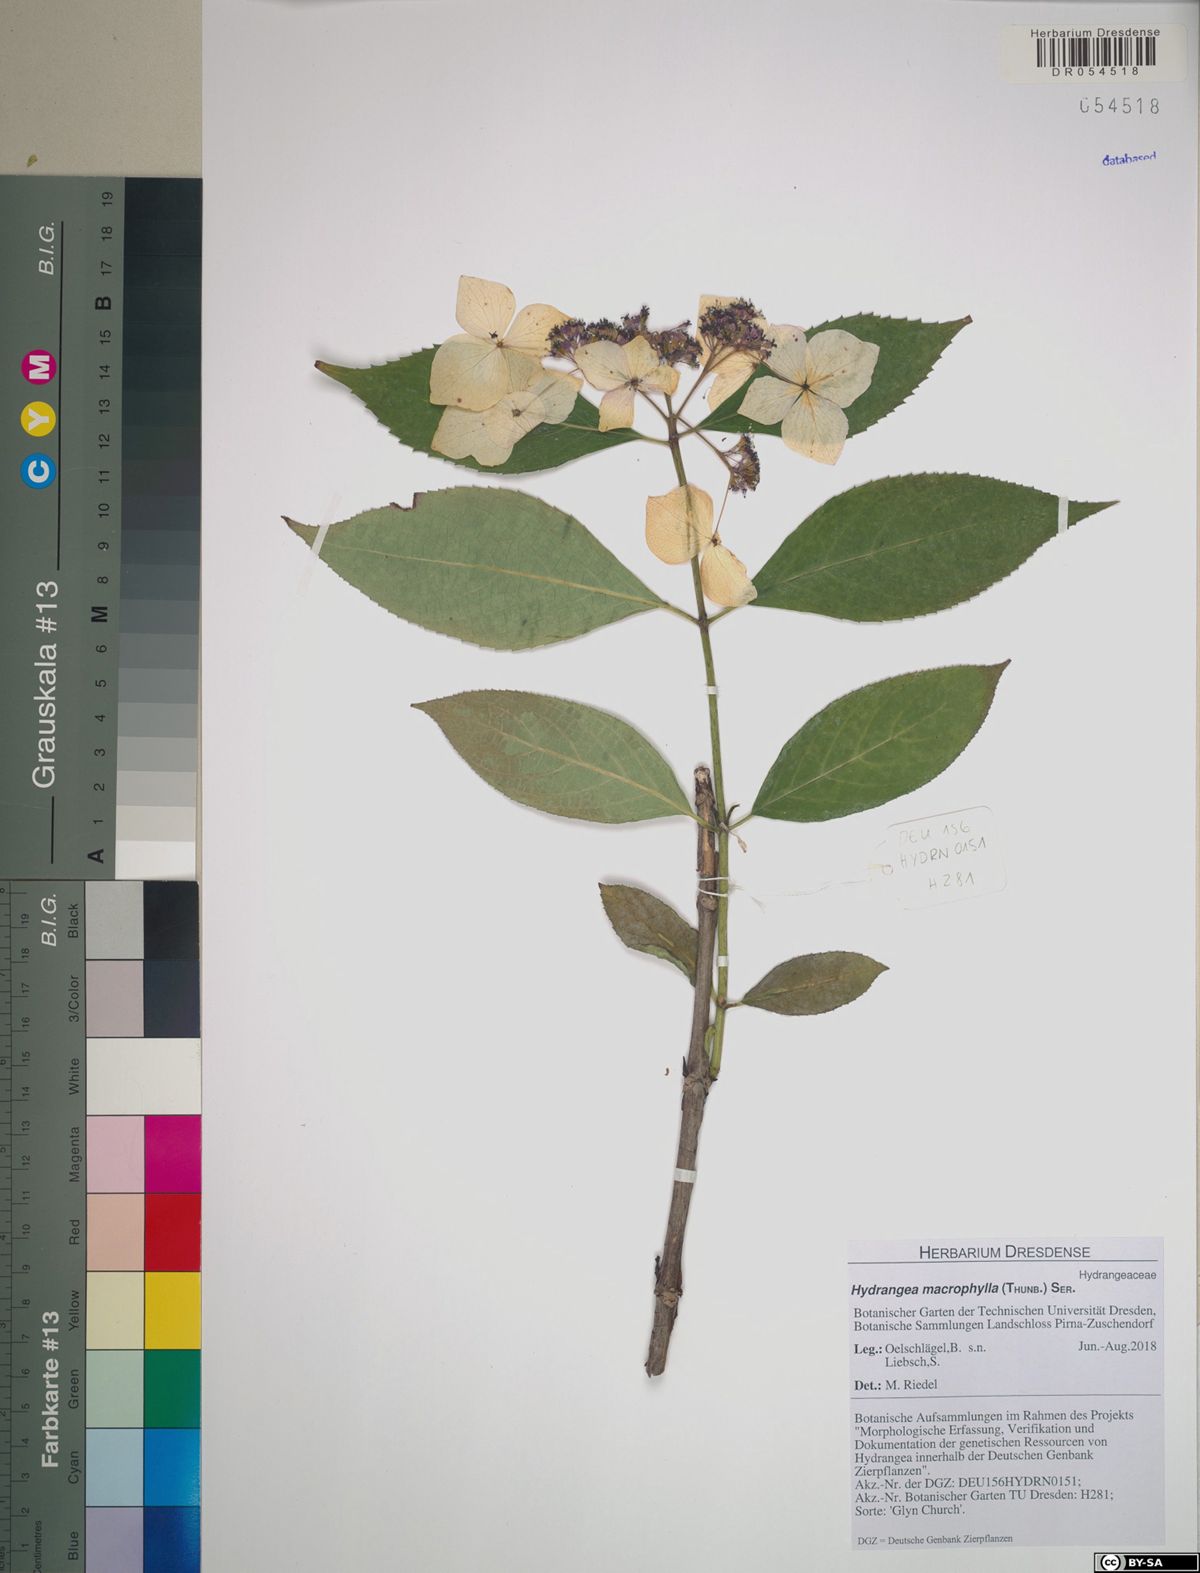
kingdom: Plantae
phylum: Tracheophyta
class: Magnoliopsida
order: Cornales
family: Hydrangeaceae
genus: Hydrangea
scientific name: Hydrangea macrophylla
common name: Hydrangea
